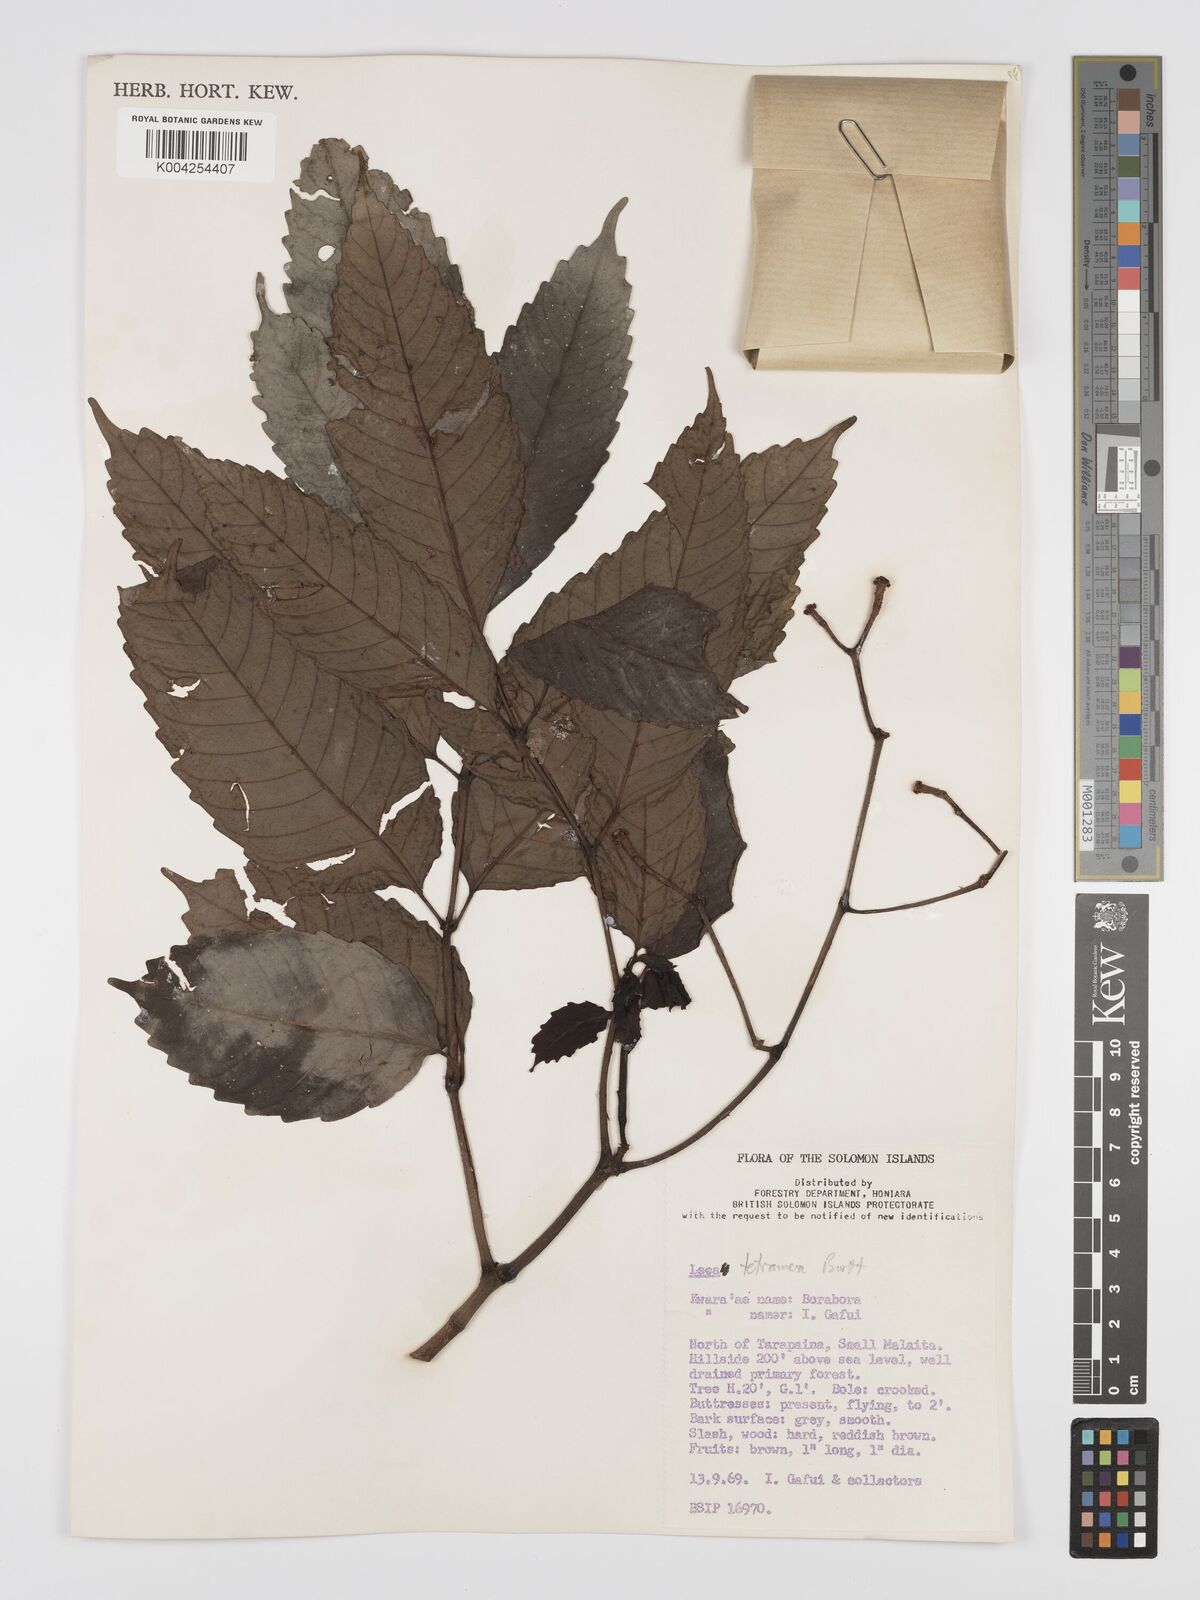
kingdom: Plantae
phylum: Tracheophyta
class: Magnoliopsida
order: Vitales
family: Vitaceae
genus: Leea
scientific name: Leea tetramera
